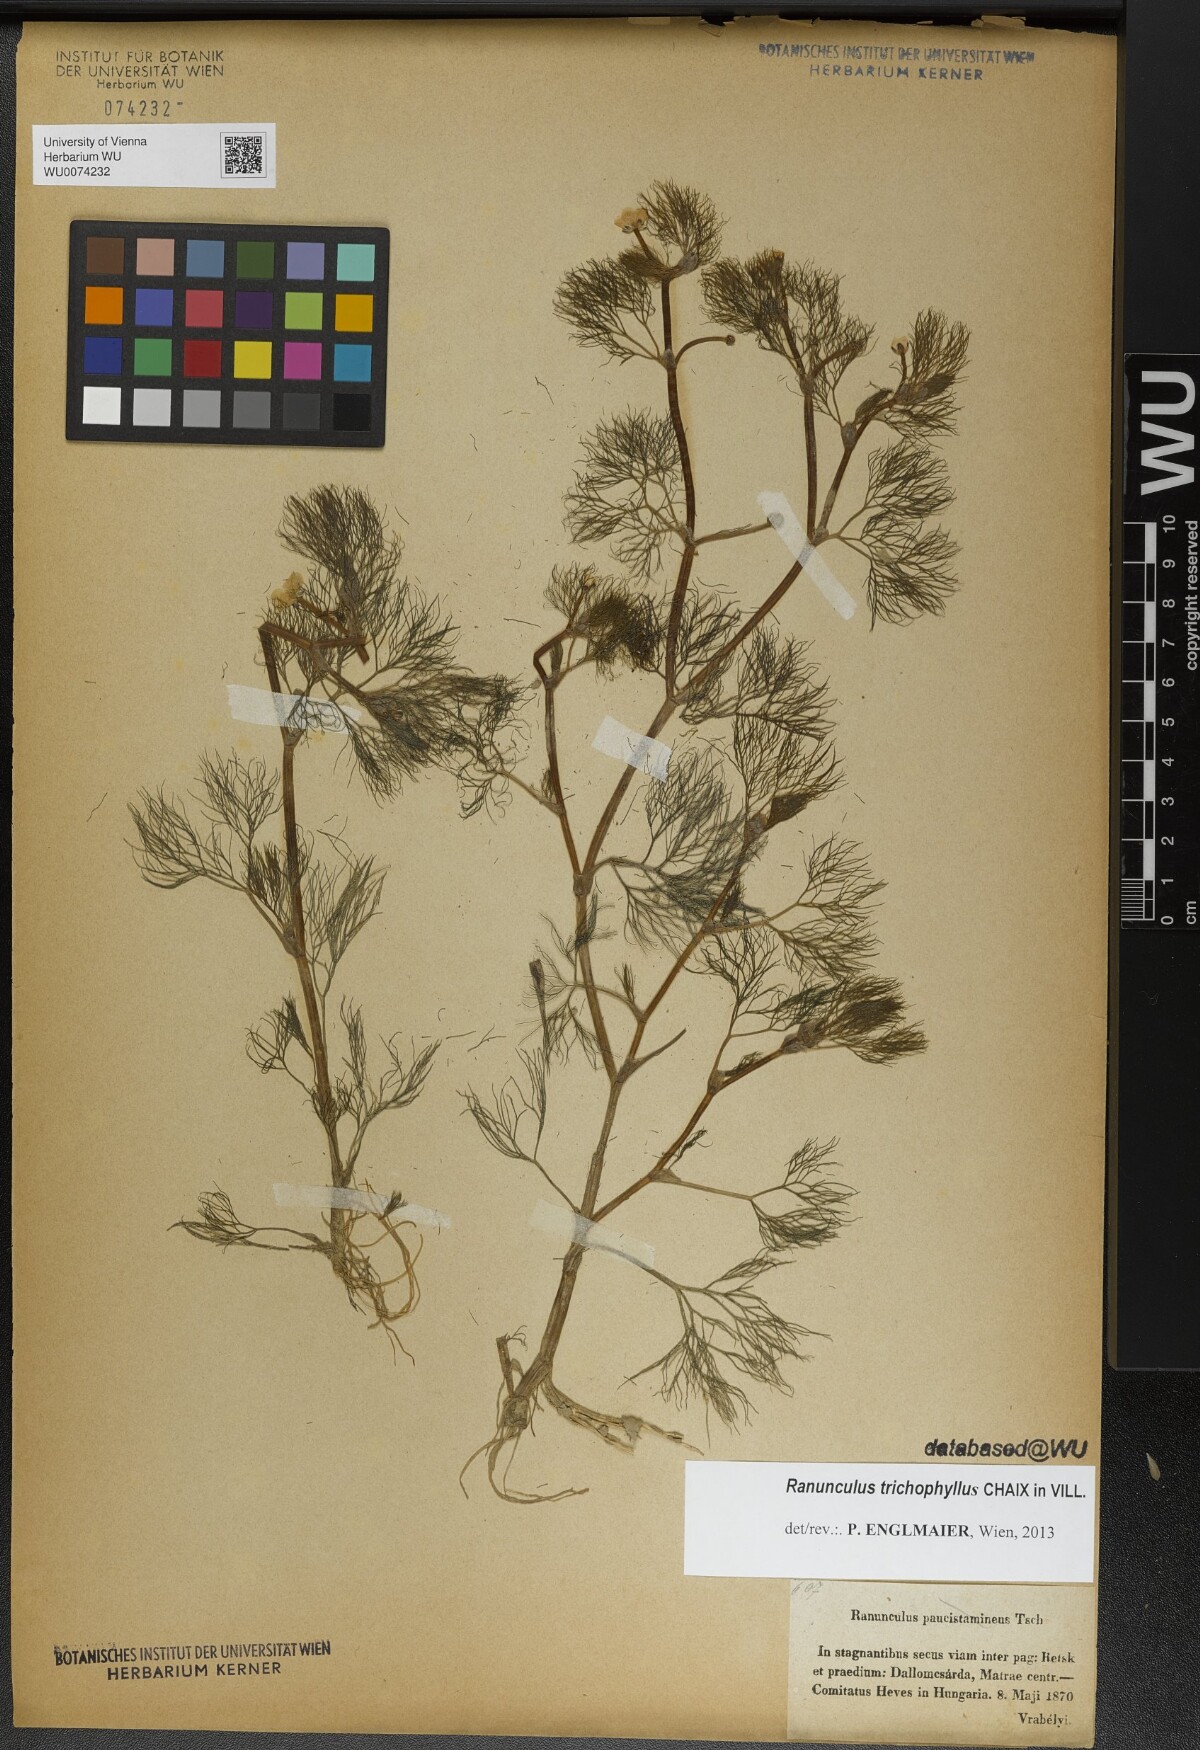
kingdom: Plantae
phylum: Tracheophyta
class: Magnoliopsida
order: Ranunculales
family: Ranunculaceae
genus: Ranunculus
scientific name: Ranunculus trichophyllus
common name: Thread-leaved water-crowfoot
